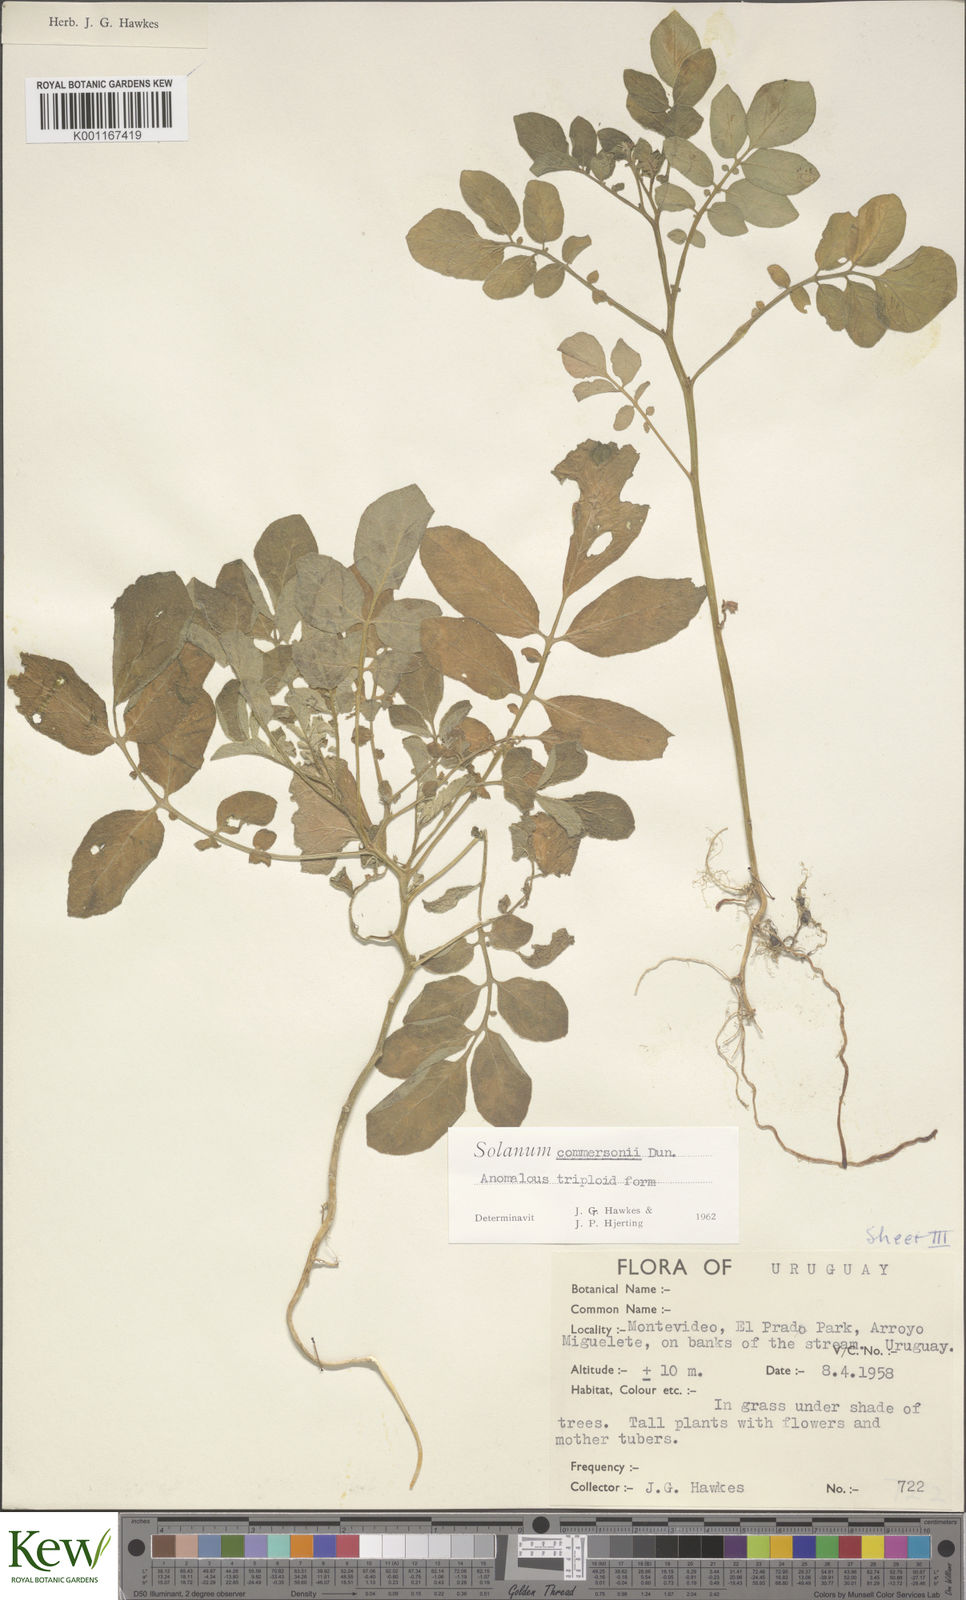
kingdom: Plantae
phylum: Tracheophyta
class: Magnoliopsida
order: Solanales
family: Solanaceae
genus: Solanum
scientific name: Solanum commersonii
